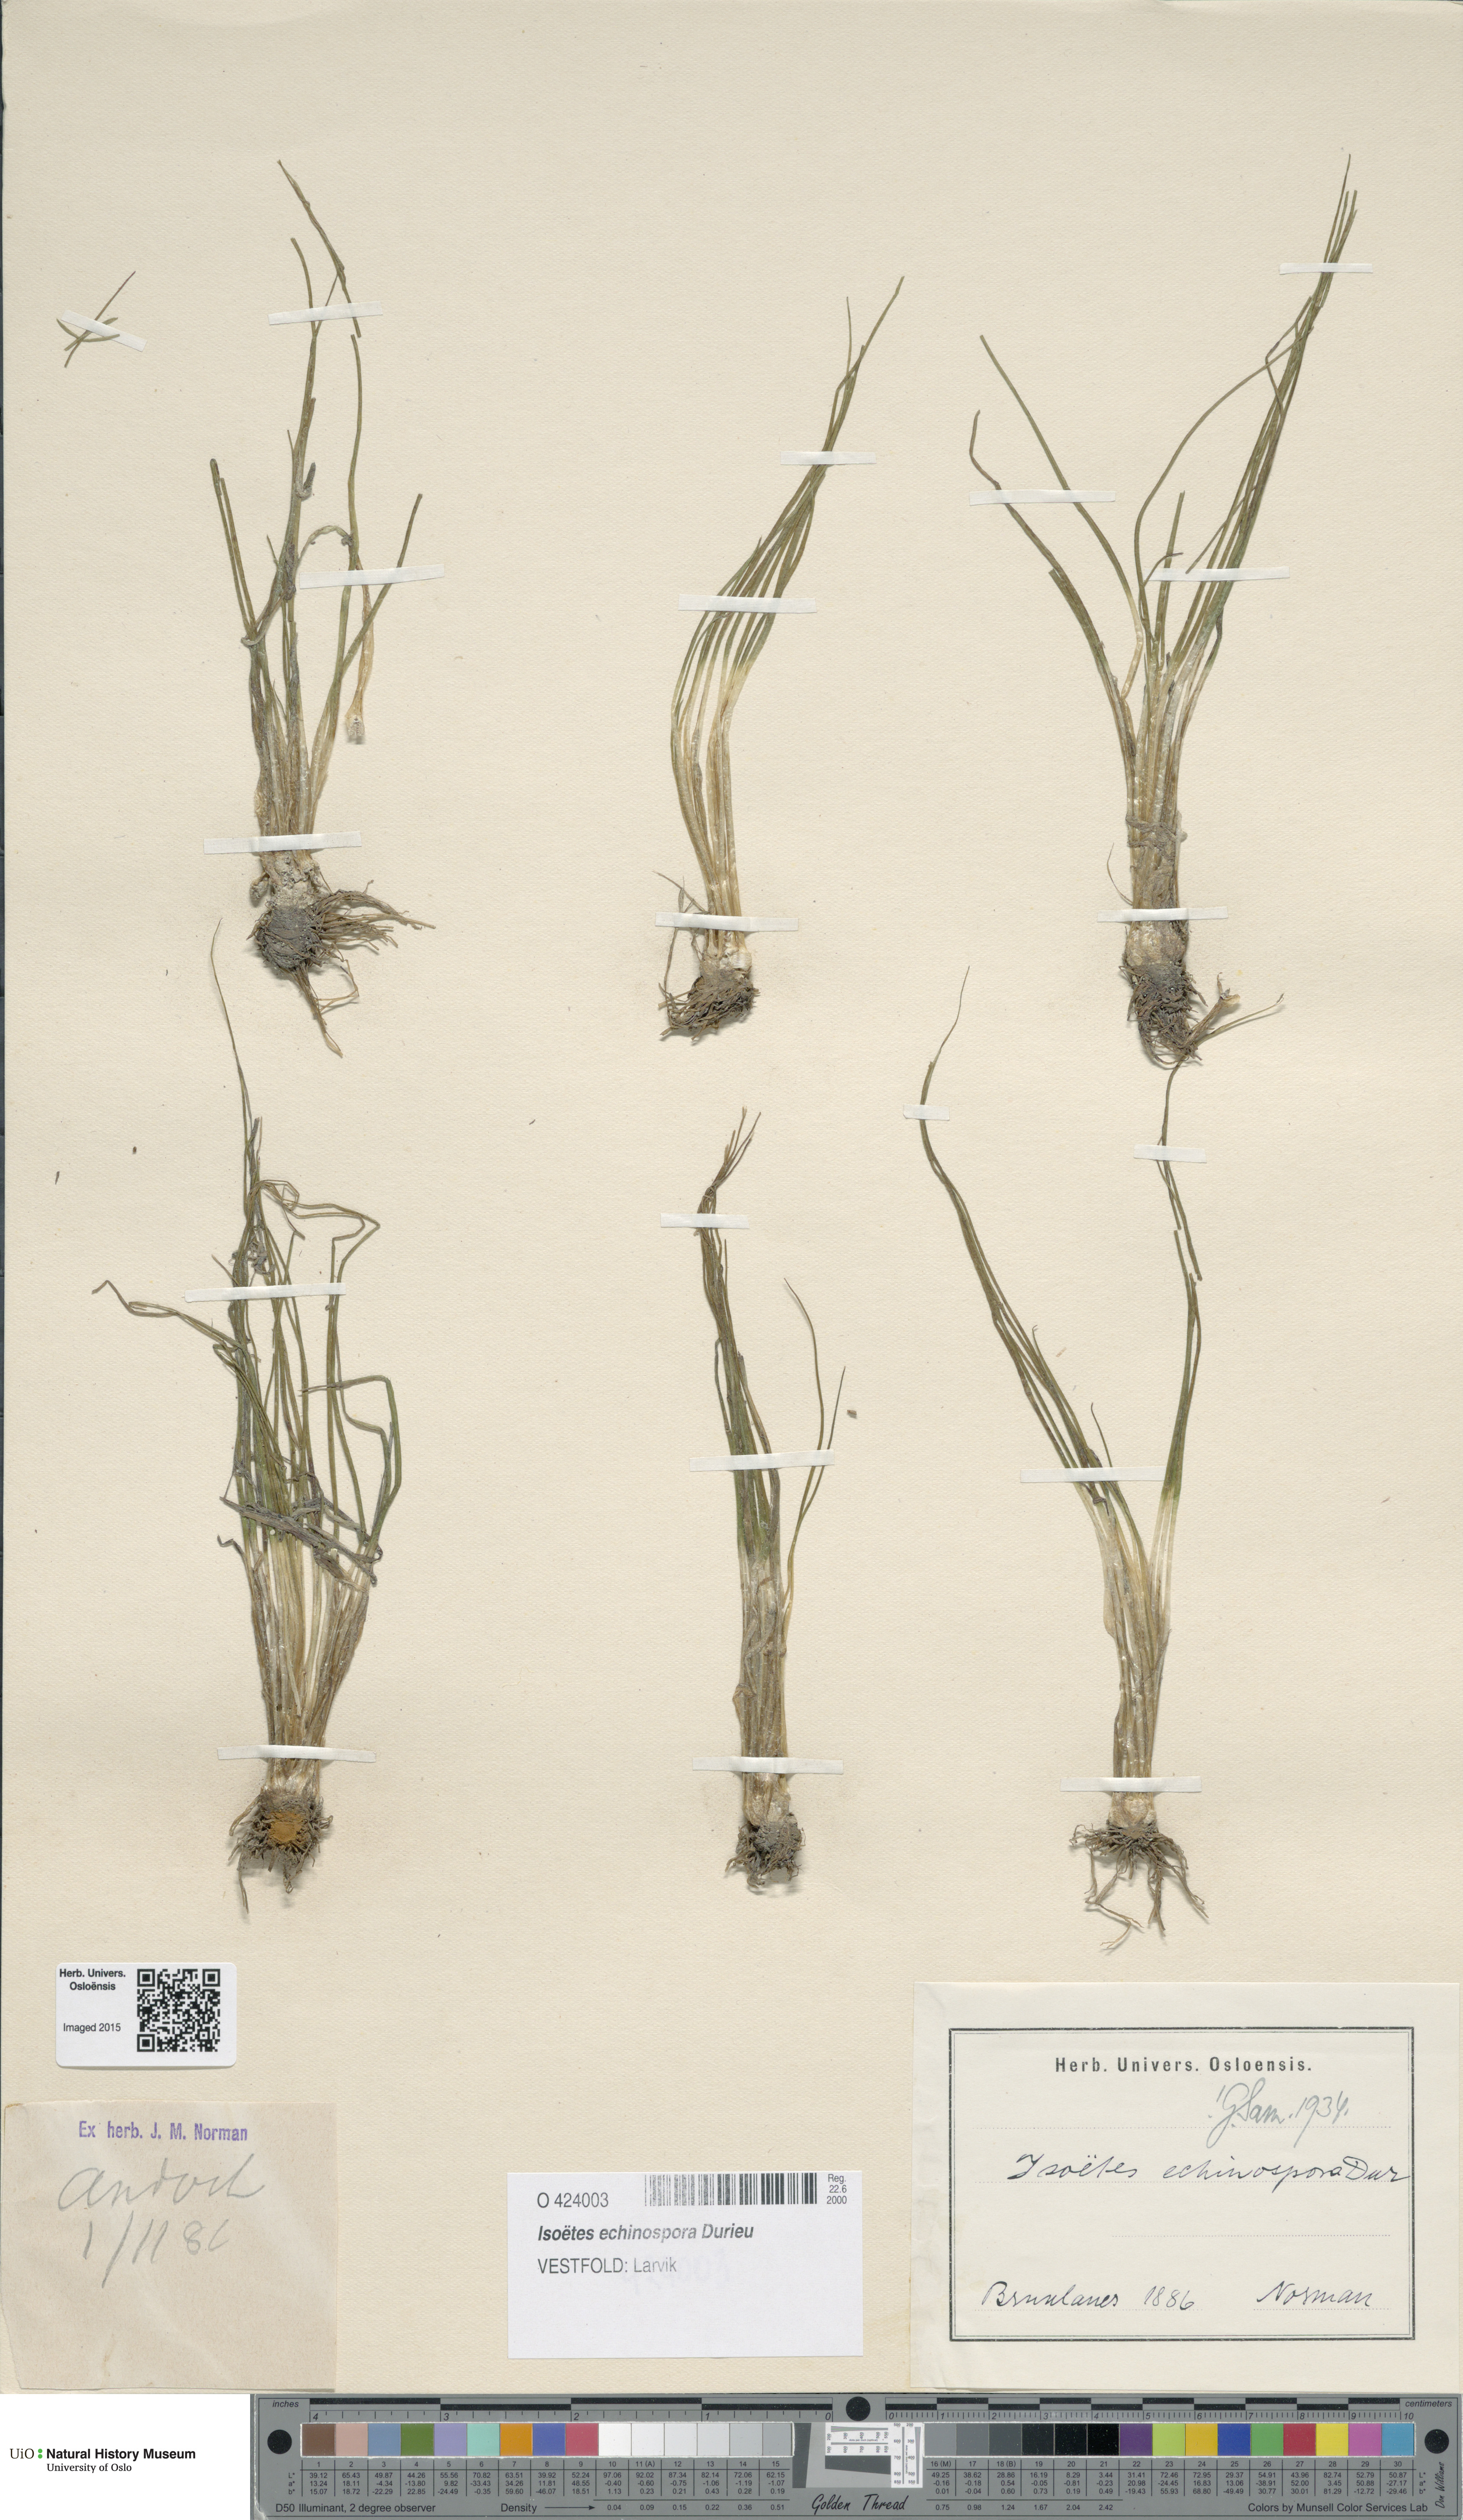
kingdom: Plantae
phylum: Tracheophyta
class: Lycopodiopsida
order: Isoetales
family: Isoetaceae
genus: Isoetes
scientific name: Isoetes echinospora
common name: Spring quillwort
